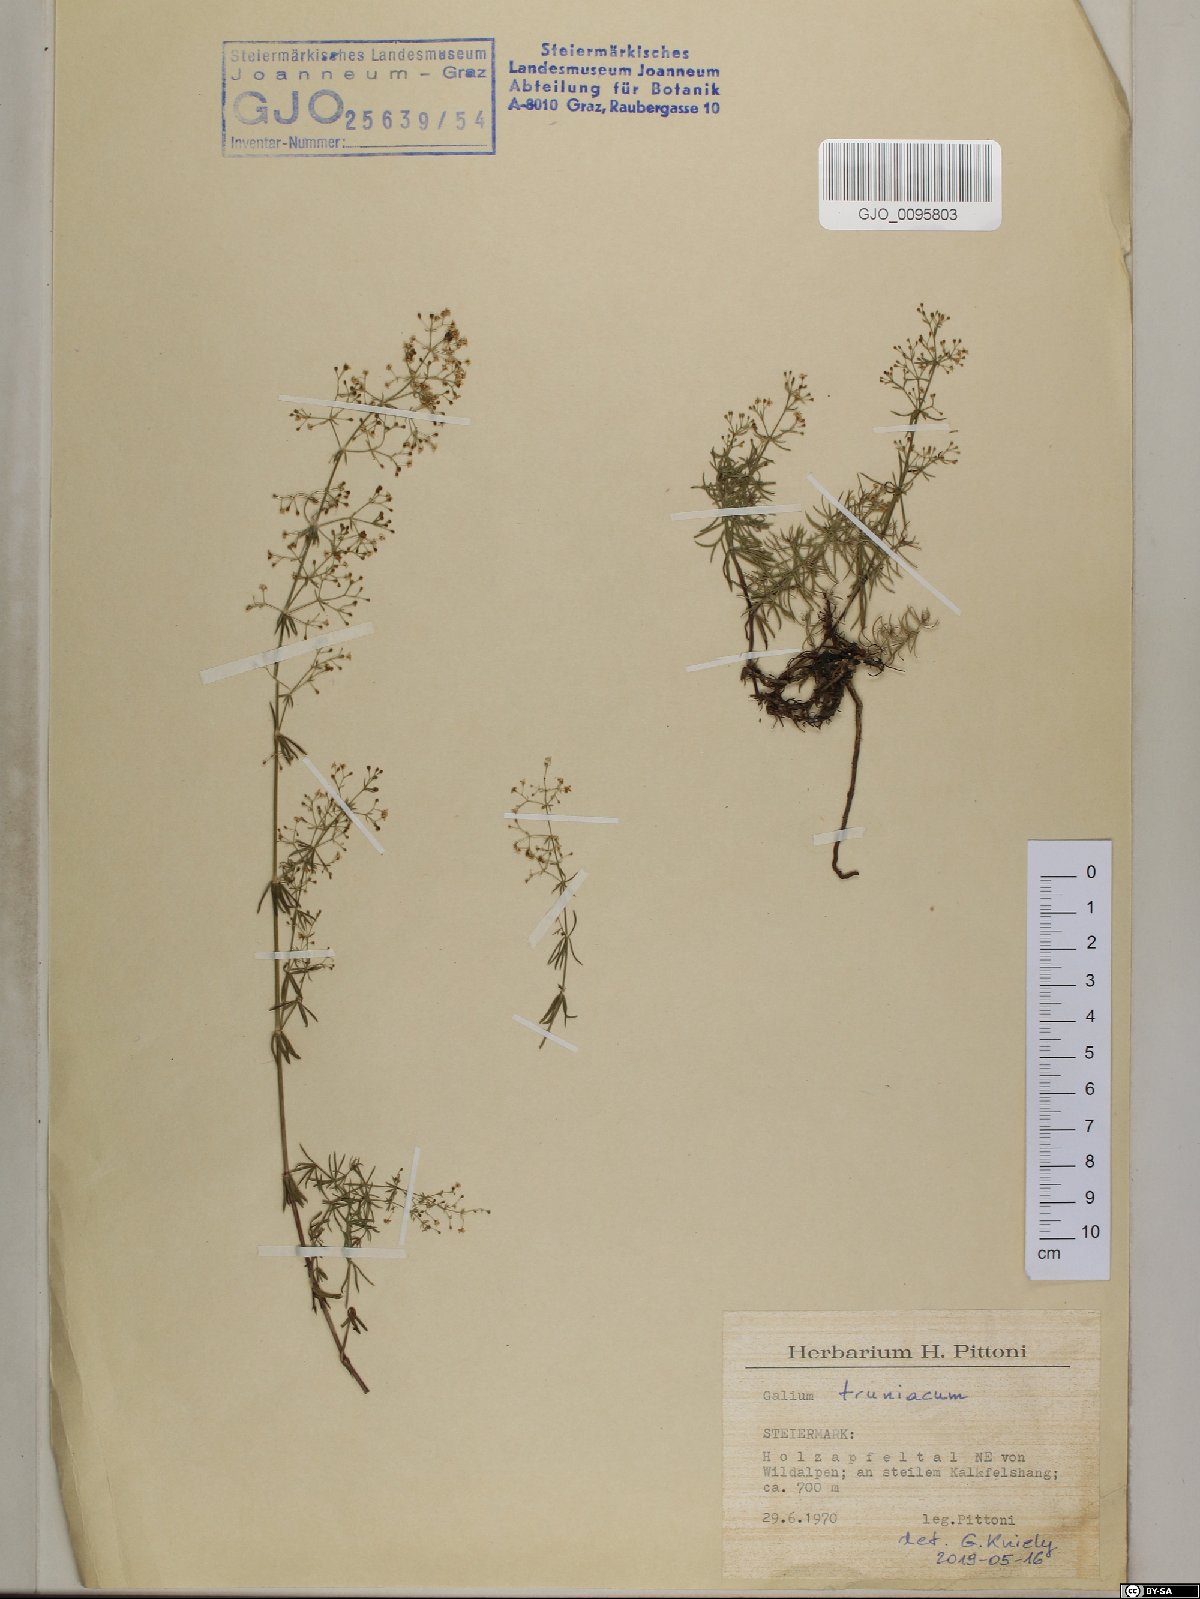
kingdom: Plantae
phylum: Tracheophyta
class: Magnoliopsida
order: Gentianales
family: Rubiaceae
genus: Galium
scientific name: Galium truniacum
